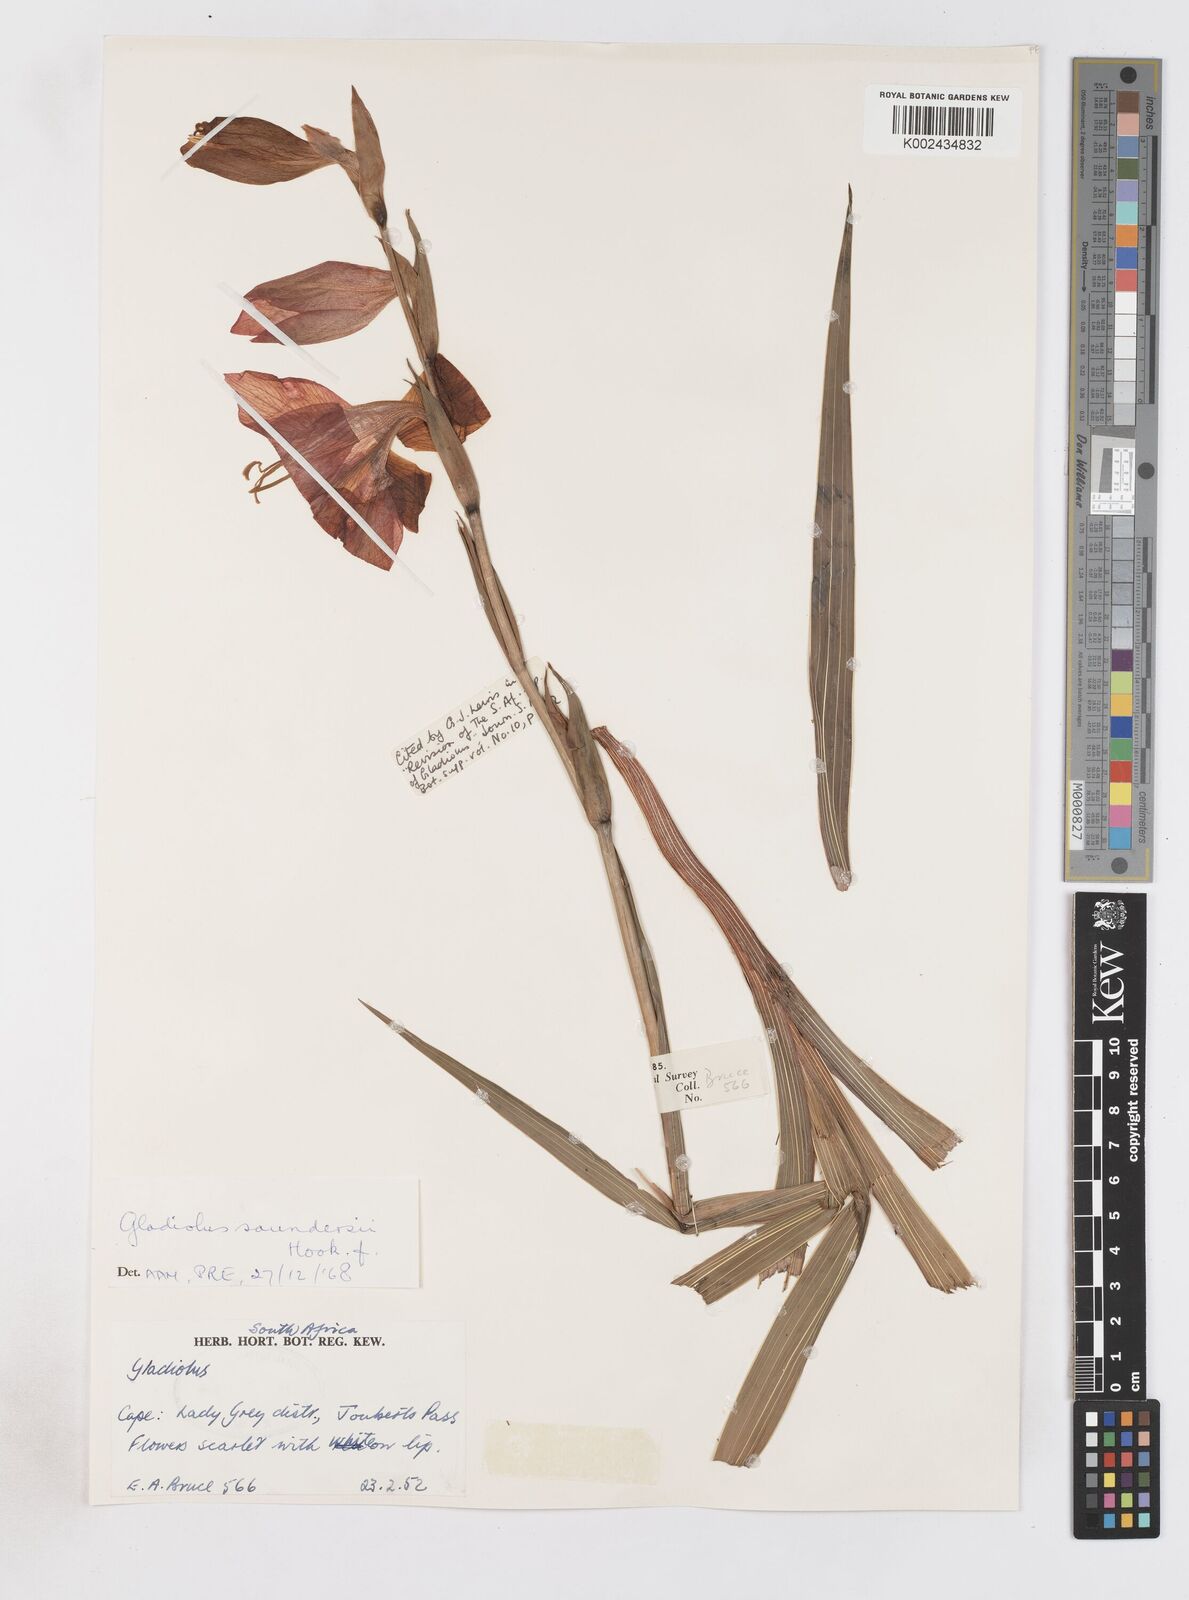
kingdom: Plantae
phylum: Tracheophyta
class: Liliopsida
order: Asparagales
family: Iridaceae
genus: Gladiolus
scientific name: Gladiolus saundersii
